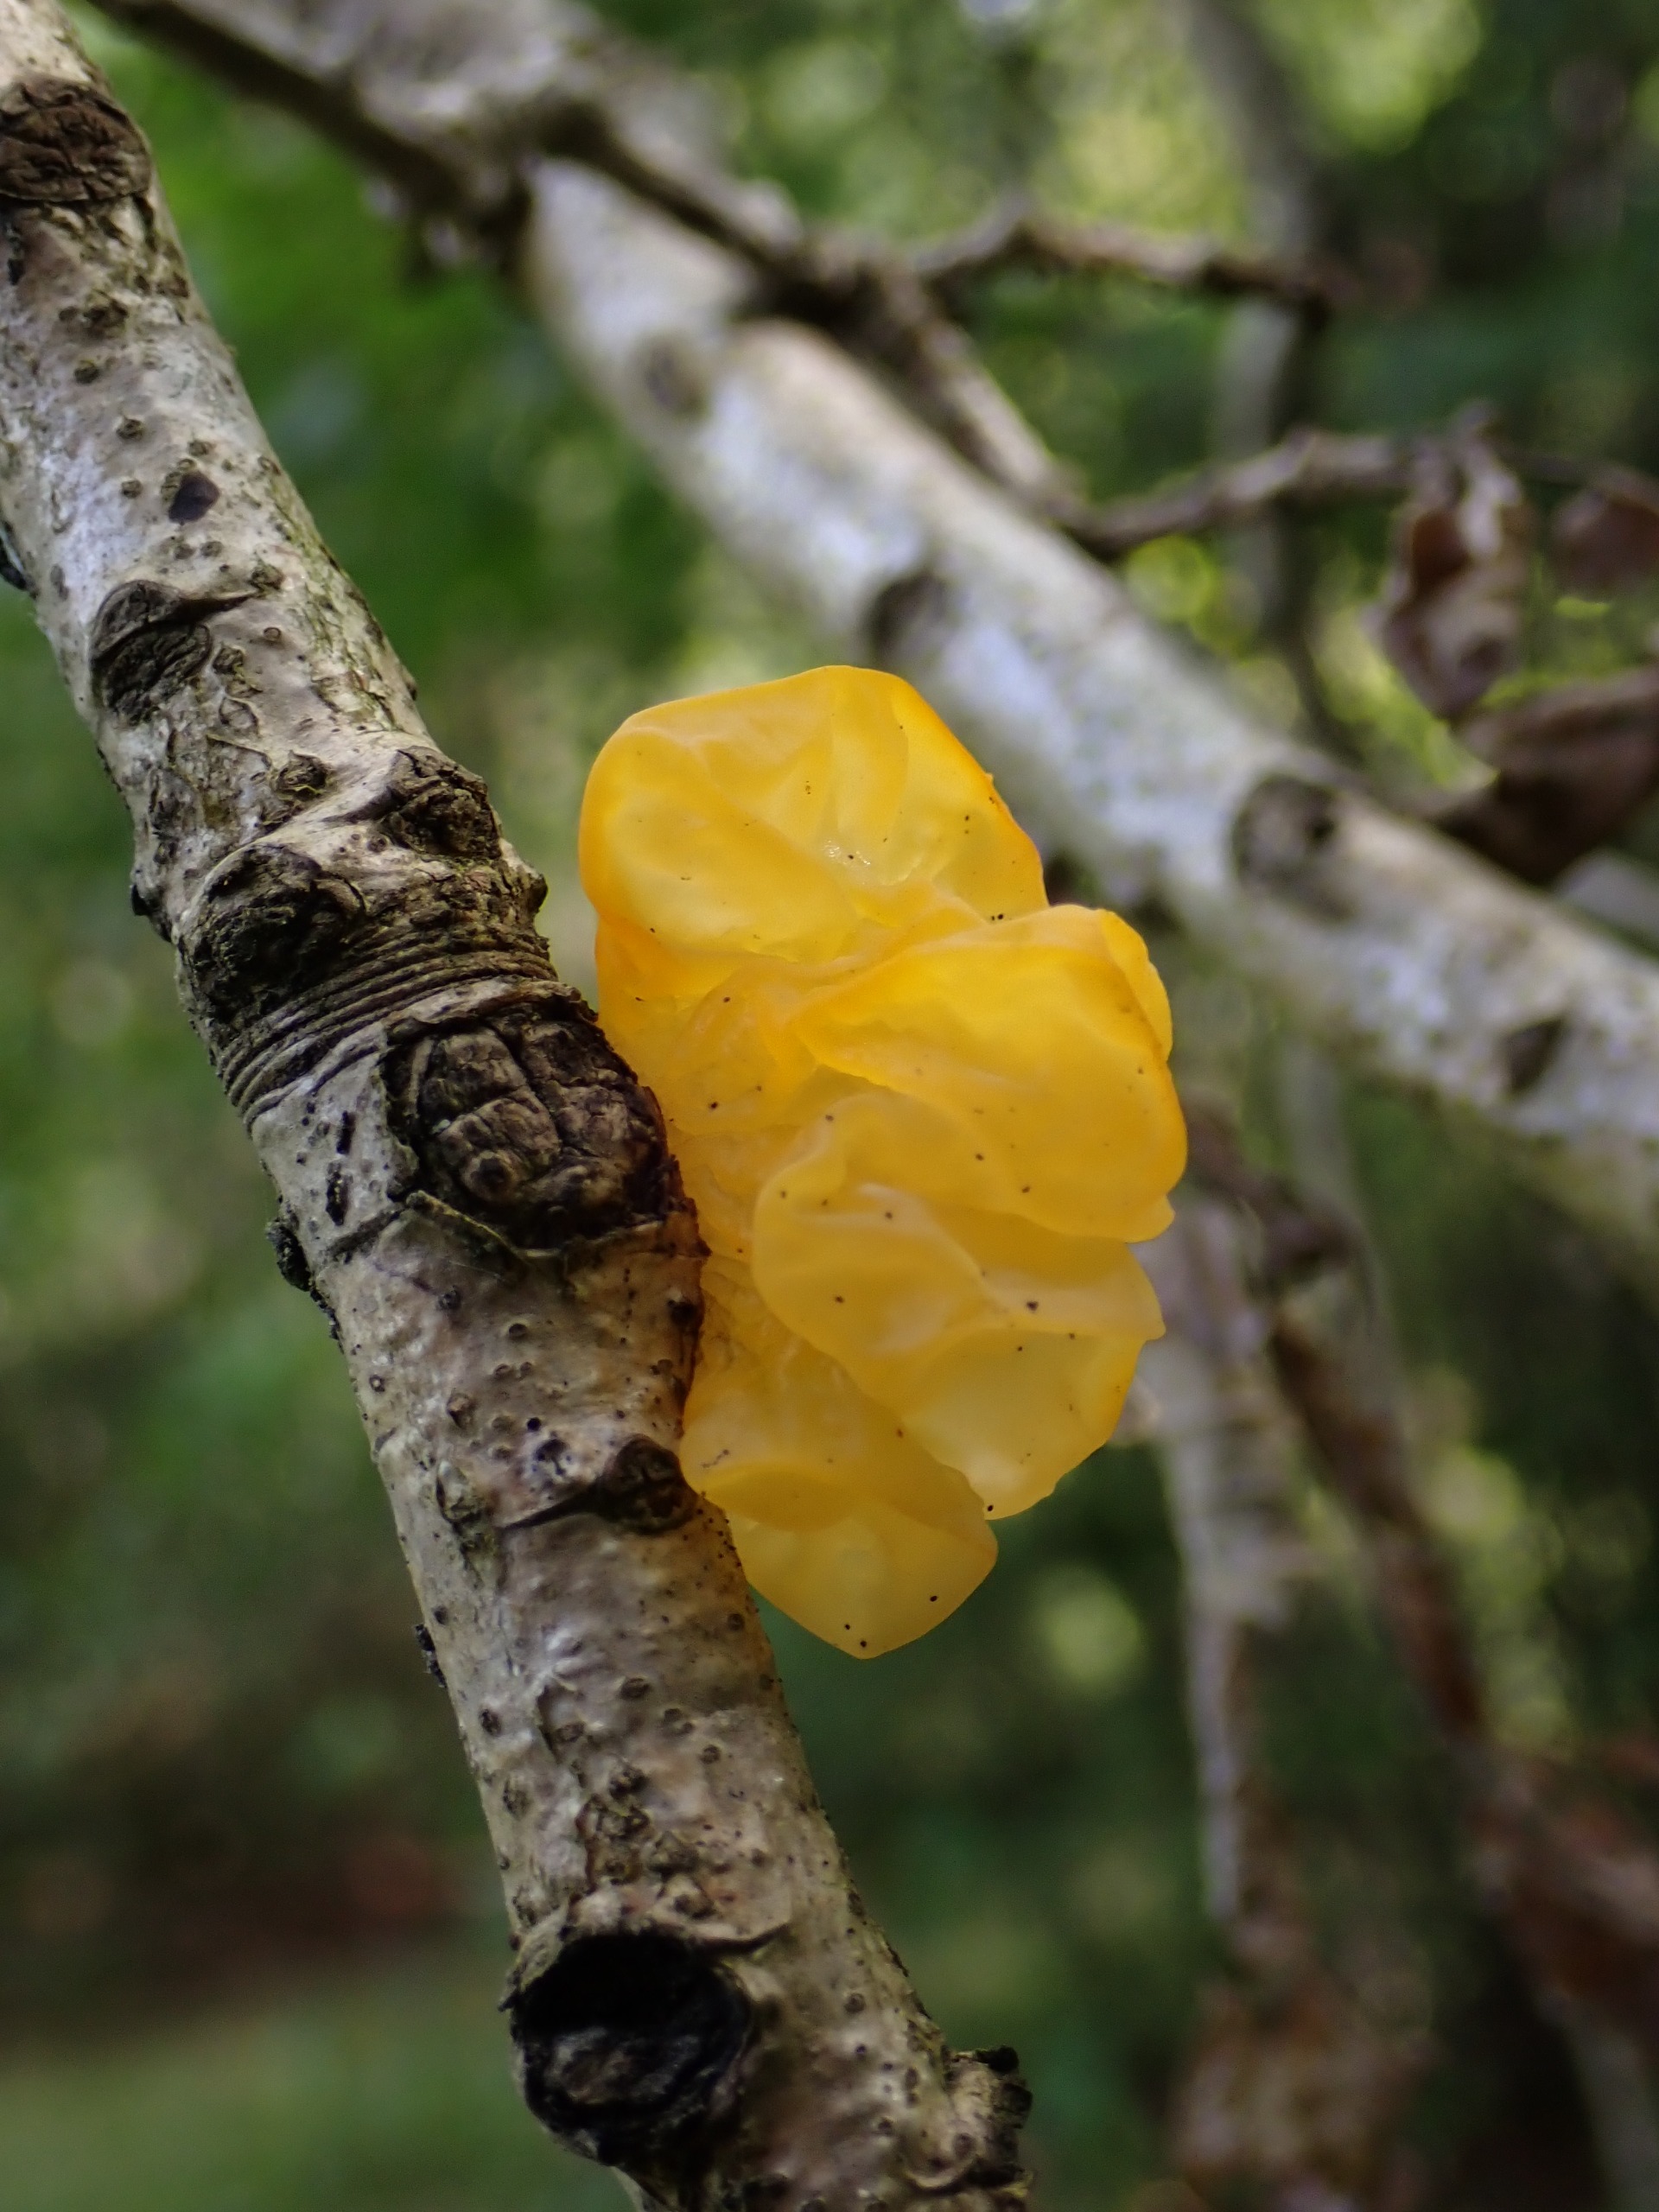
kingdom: Fungi
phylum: Basidiomycota
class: Tremellomycetes
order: Tremellales
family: Tremellaceae
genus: Tremella
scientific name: Tremella mesenterica
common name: Gul bævresvamp
